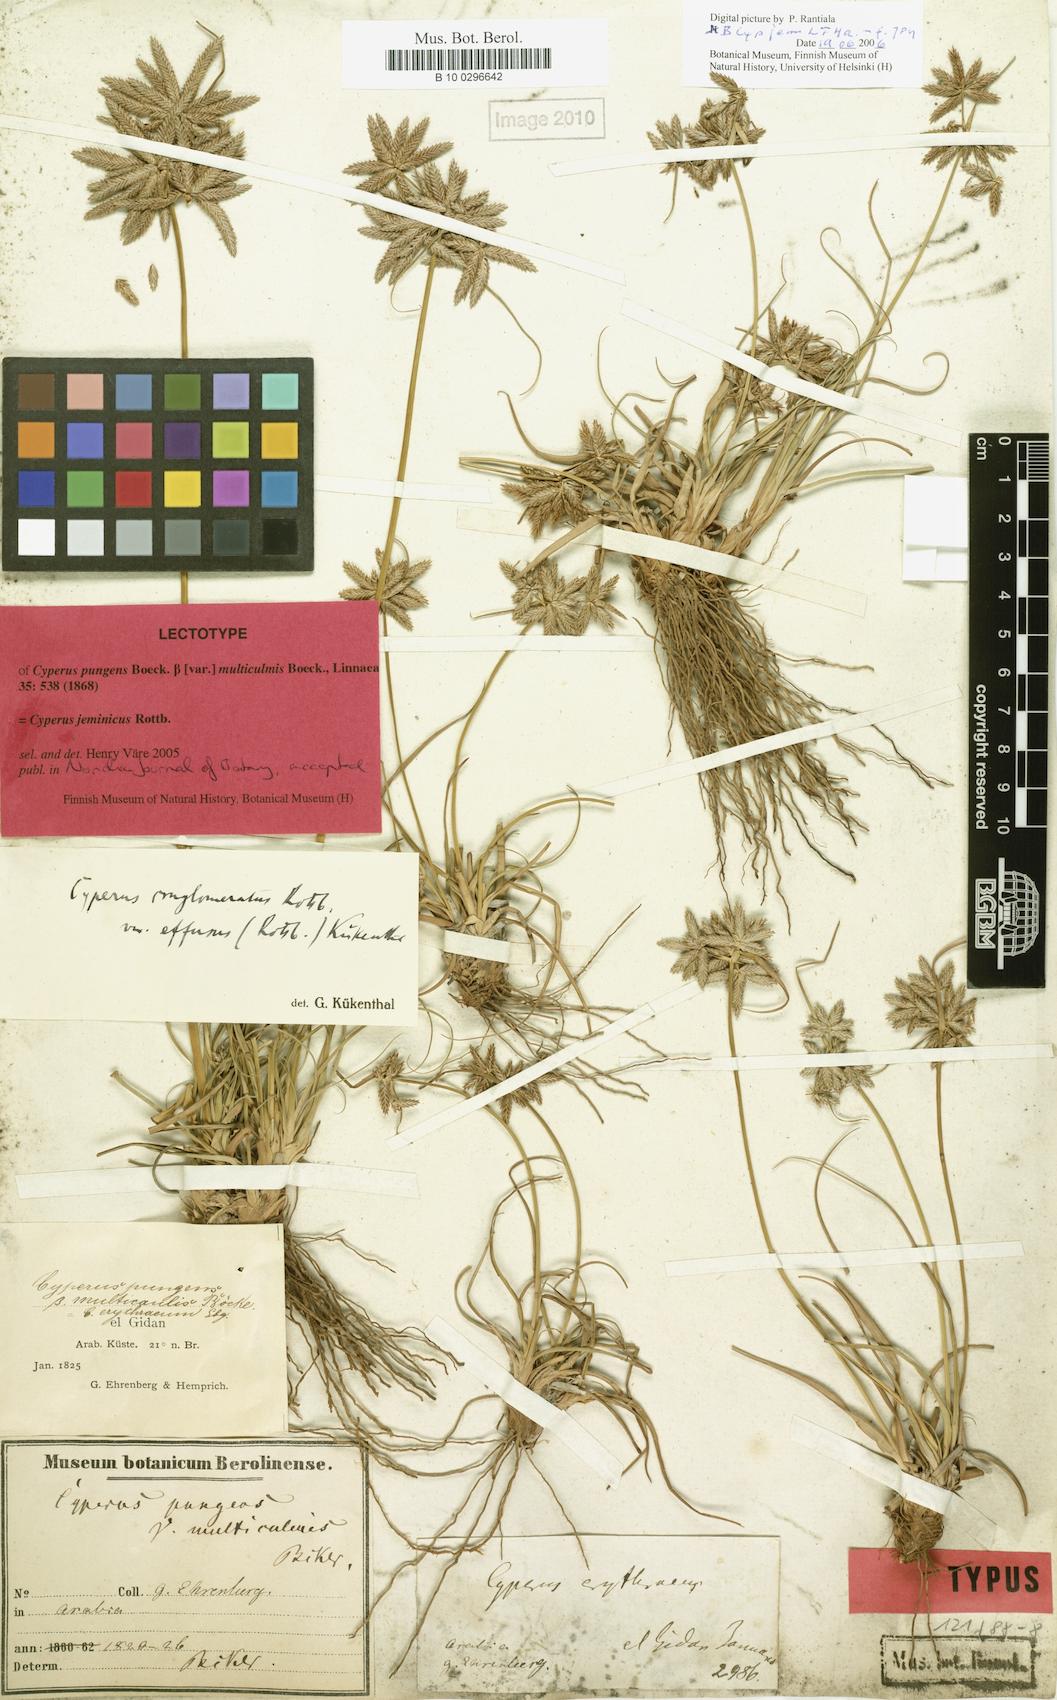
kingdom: Plantae
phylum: Tracheophyta
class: Liliopsida
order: Poales
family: Cyperaceae
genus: Cyperus
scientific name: Cyperus jeminicus
